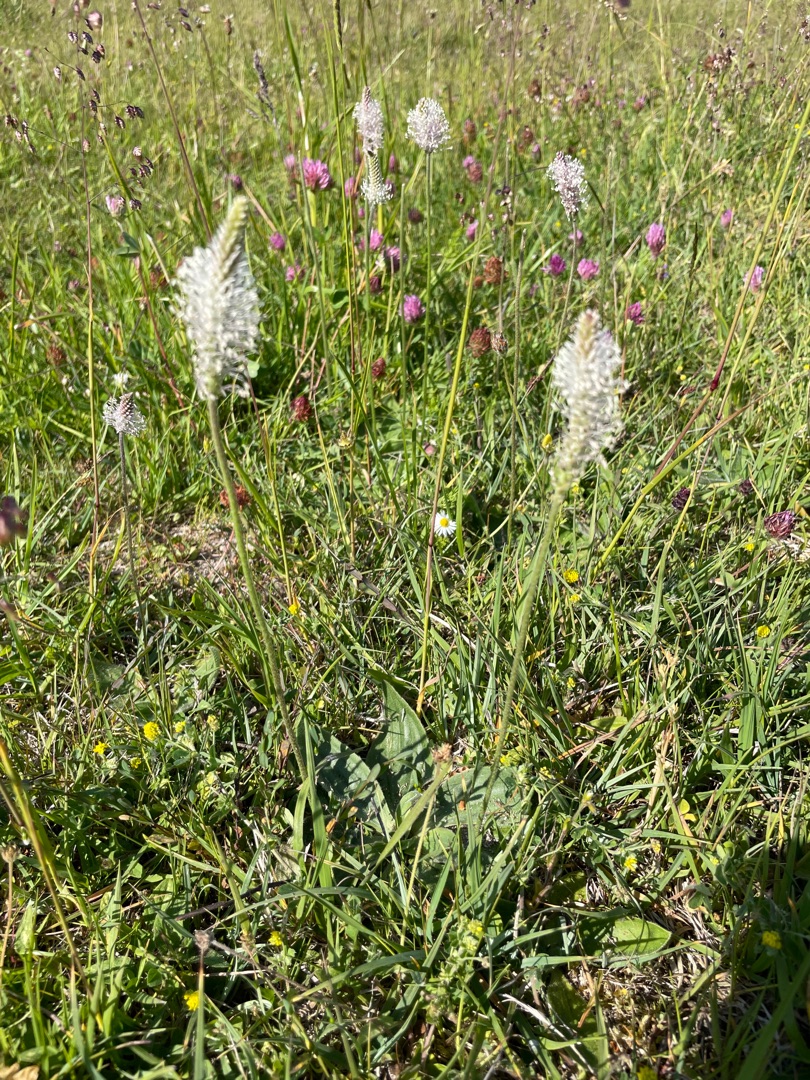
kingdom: Plantae
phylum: Tracheophyta
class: Magnoliopsida
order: Lamiales
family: Plantaginaceae
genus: Plantago
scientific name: Plantago media
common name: Dunet vejbred
